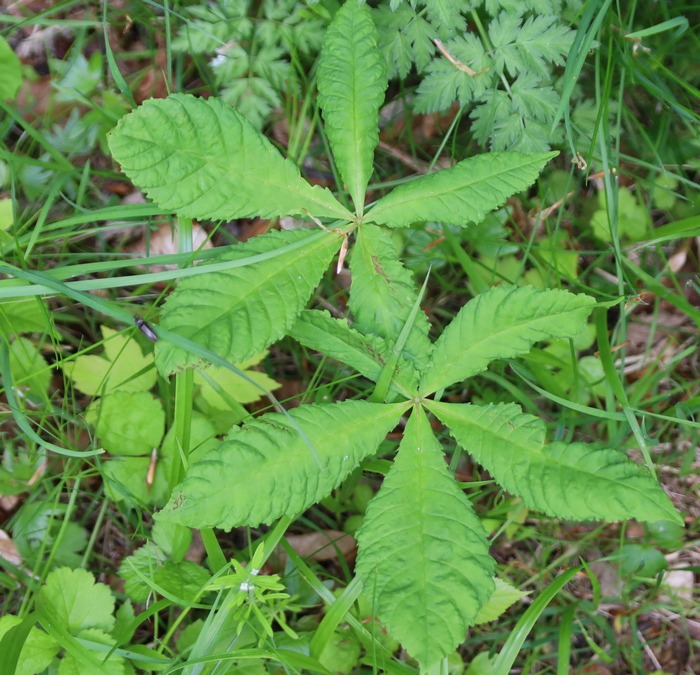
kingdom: Plantae
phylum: Tracheophyta
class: Magnoliopsida
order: Sapindales
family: Sapindaceae
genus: Aesculus
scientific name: Aesculus hippocastanum
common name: Hestekastanie
